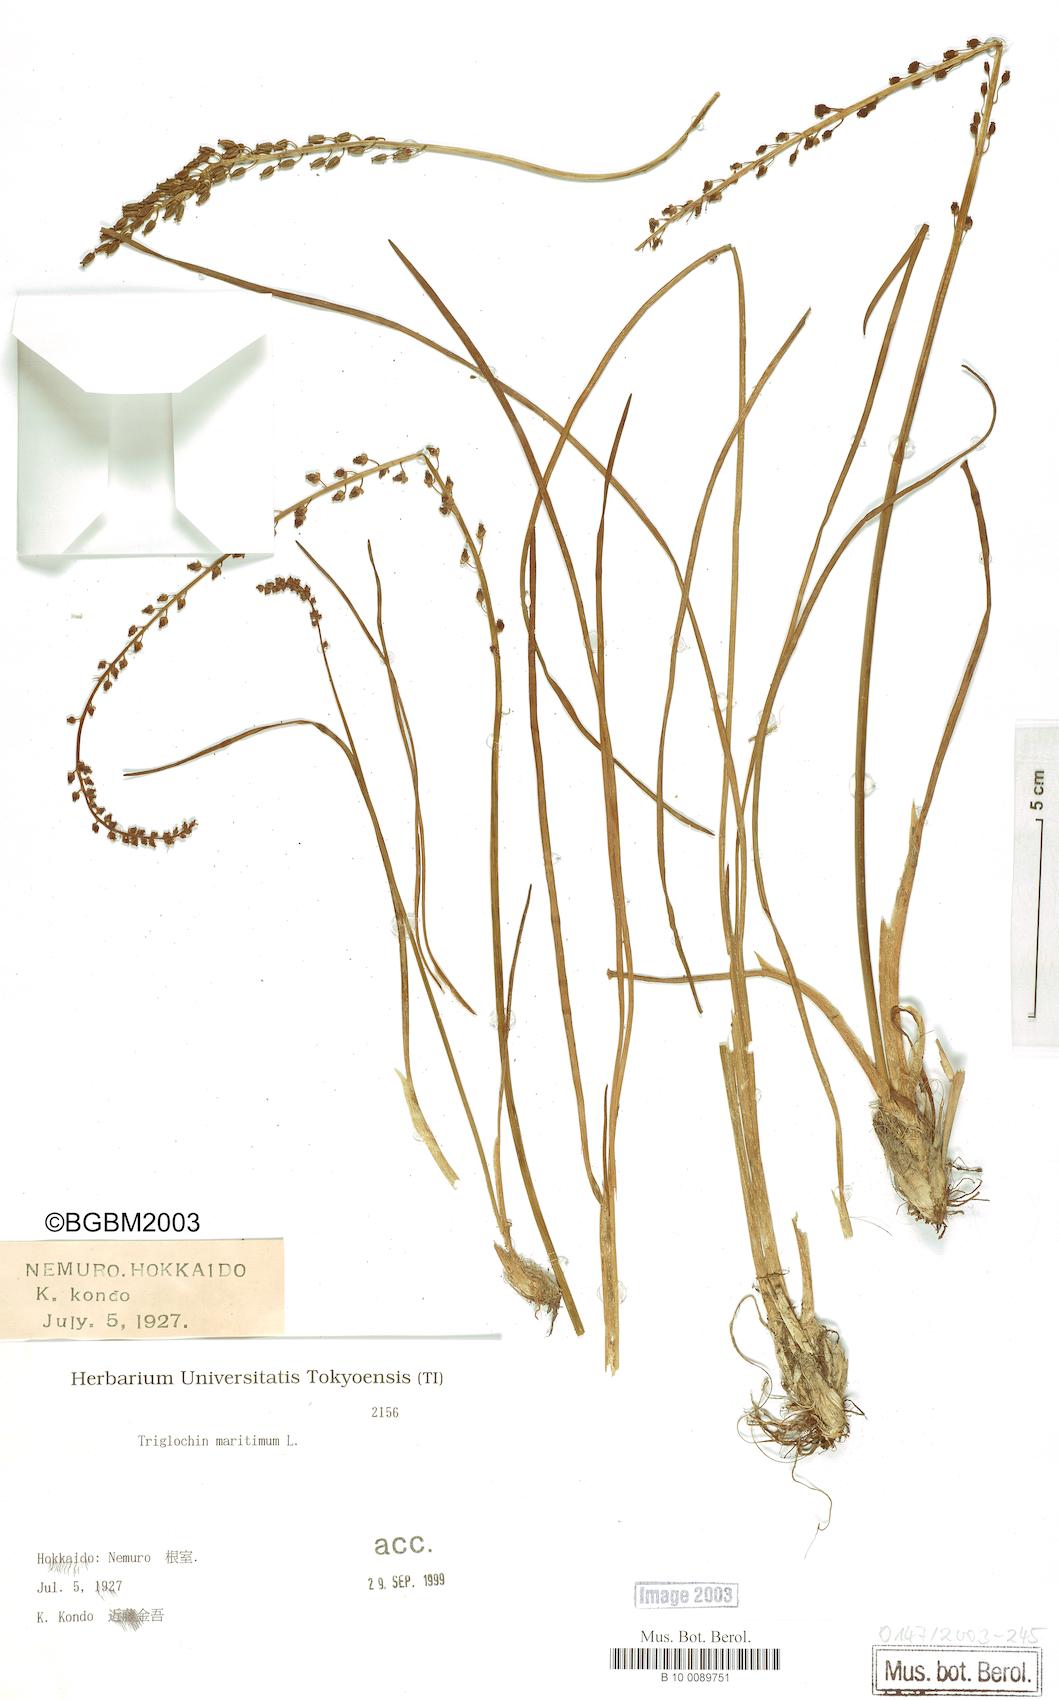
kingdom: Plantae
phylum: Tracheophyta
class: Liliopsida
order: Alismatales
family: Juncaginaceae
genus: Triglochin
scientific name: Triglochin maritima
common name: Sea arrowgrass
